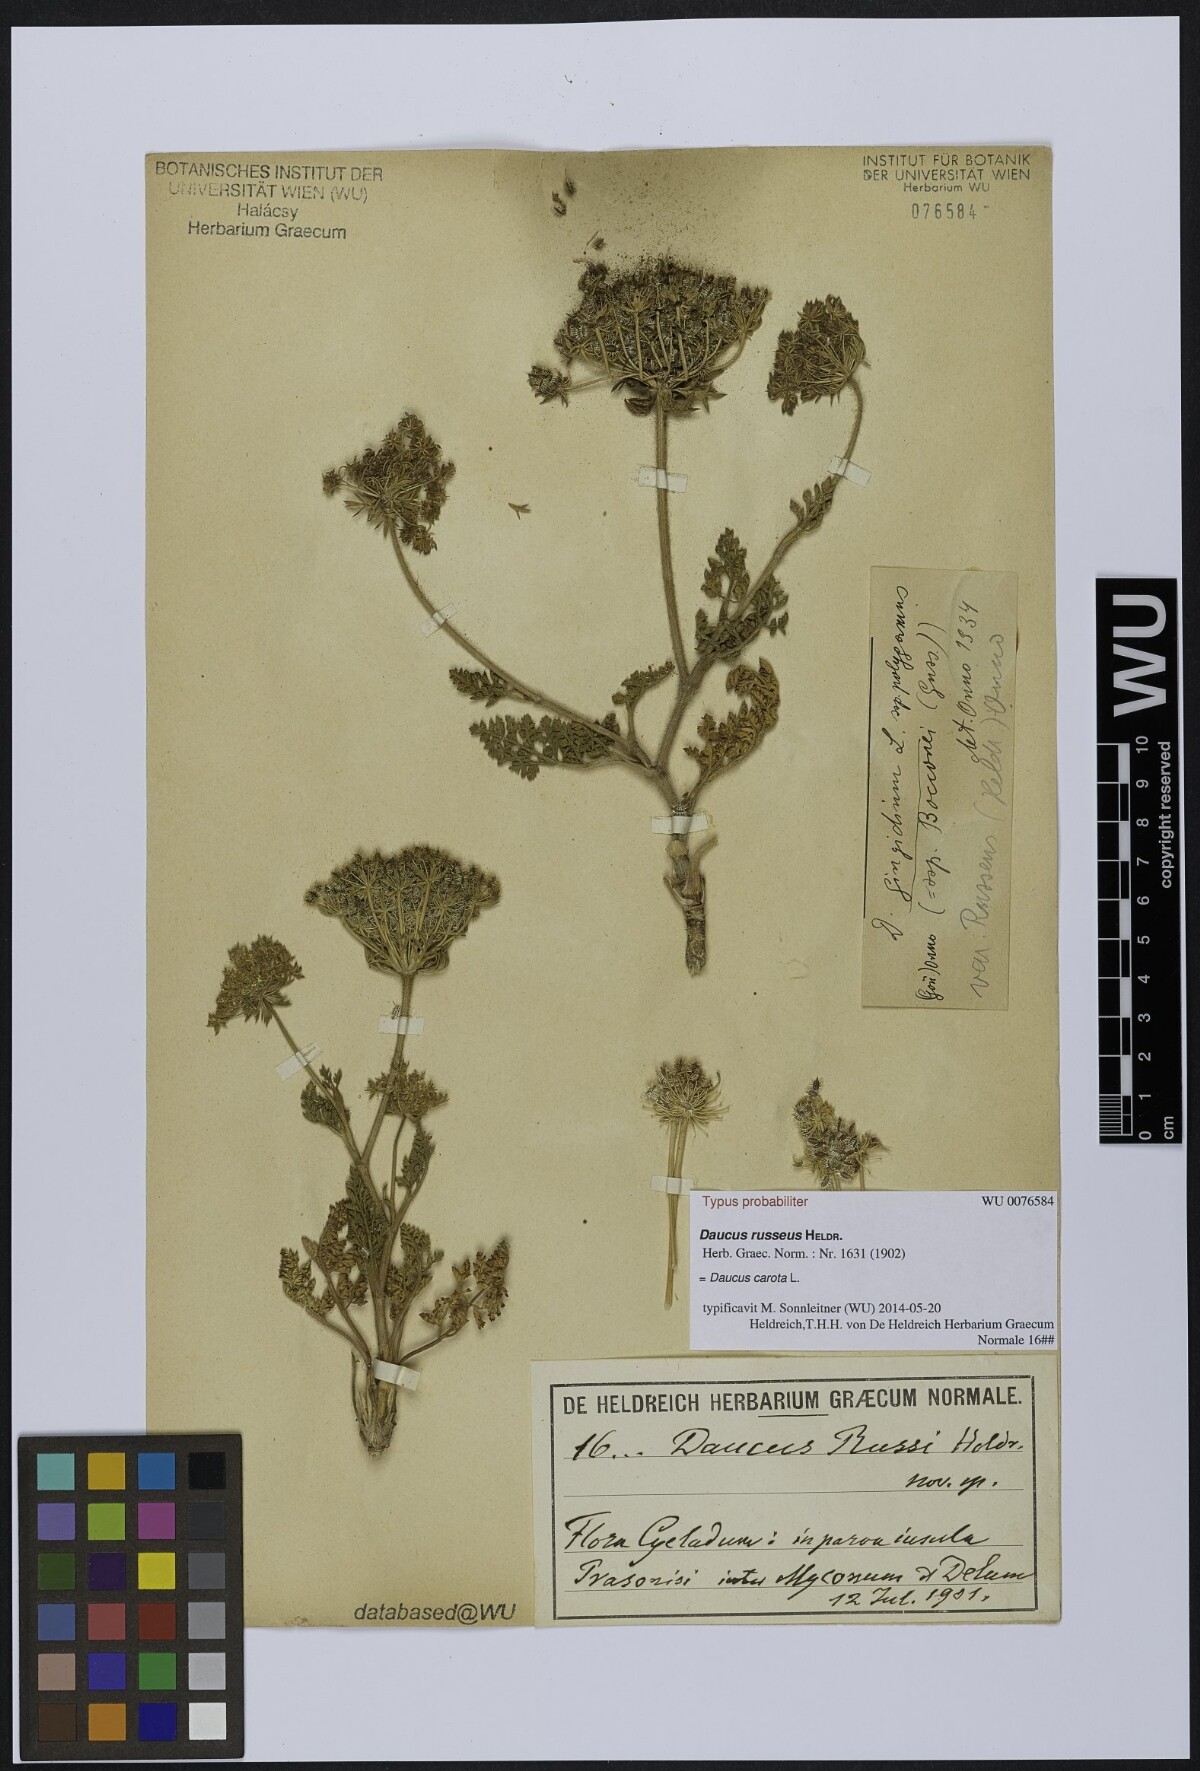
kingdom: Plantae
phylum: Tracheophyta
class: Magnoliopsida
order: Apiales
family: Apiaceae
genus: Daucus
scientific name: Daucus carota
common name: Wild carrot
